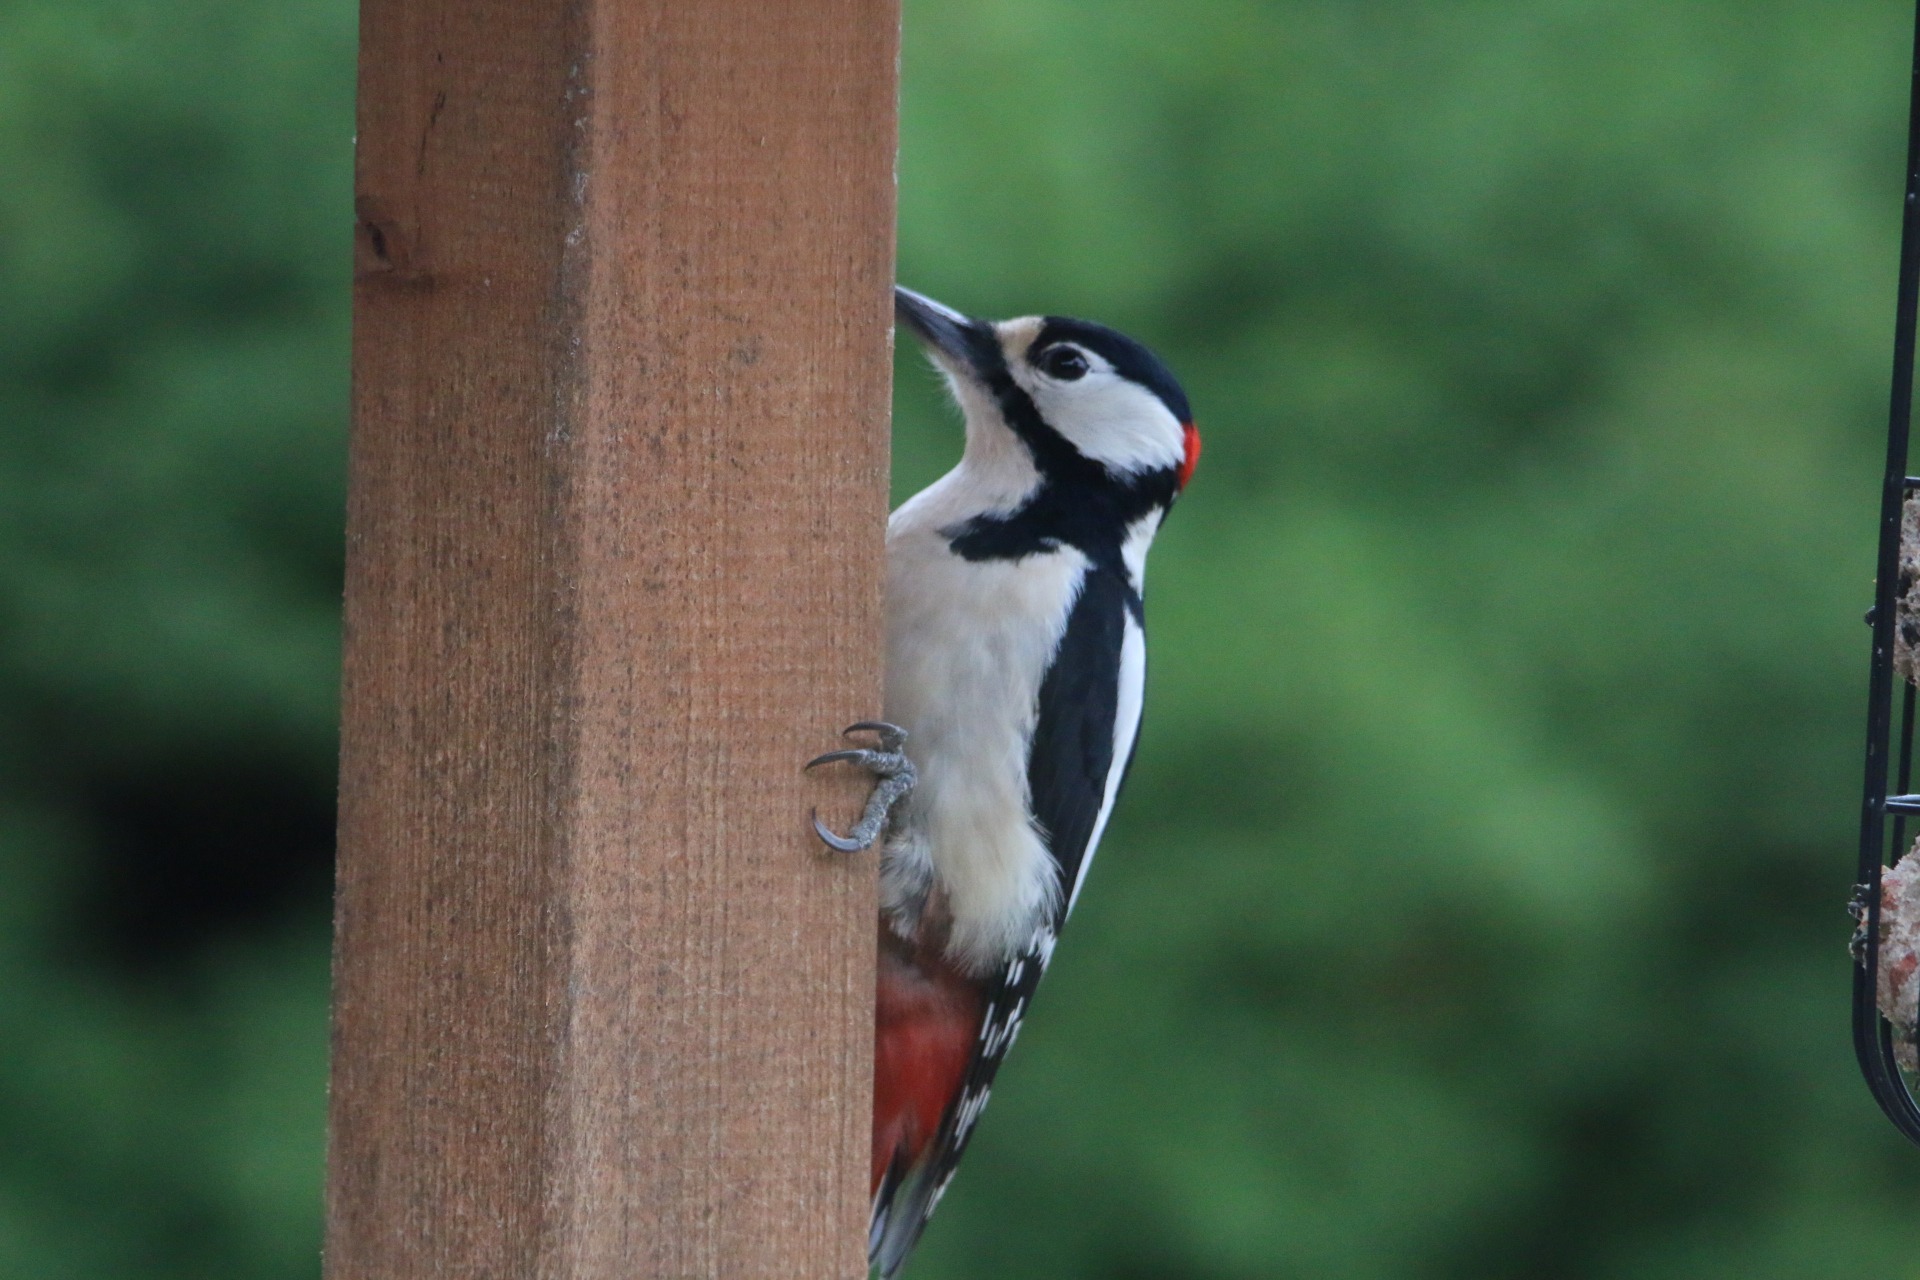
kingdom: Animalia
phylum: Chordata
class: Aves
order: Piciformes
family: Picidae
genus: Dendrocopos
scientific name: Dendrocopos major
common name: Stor flagspætte
